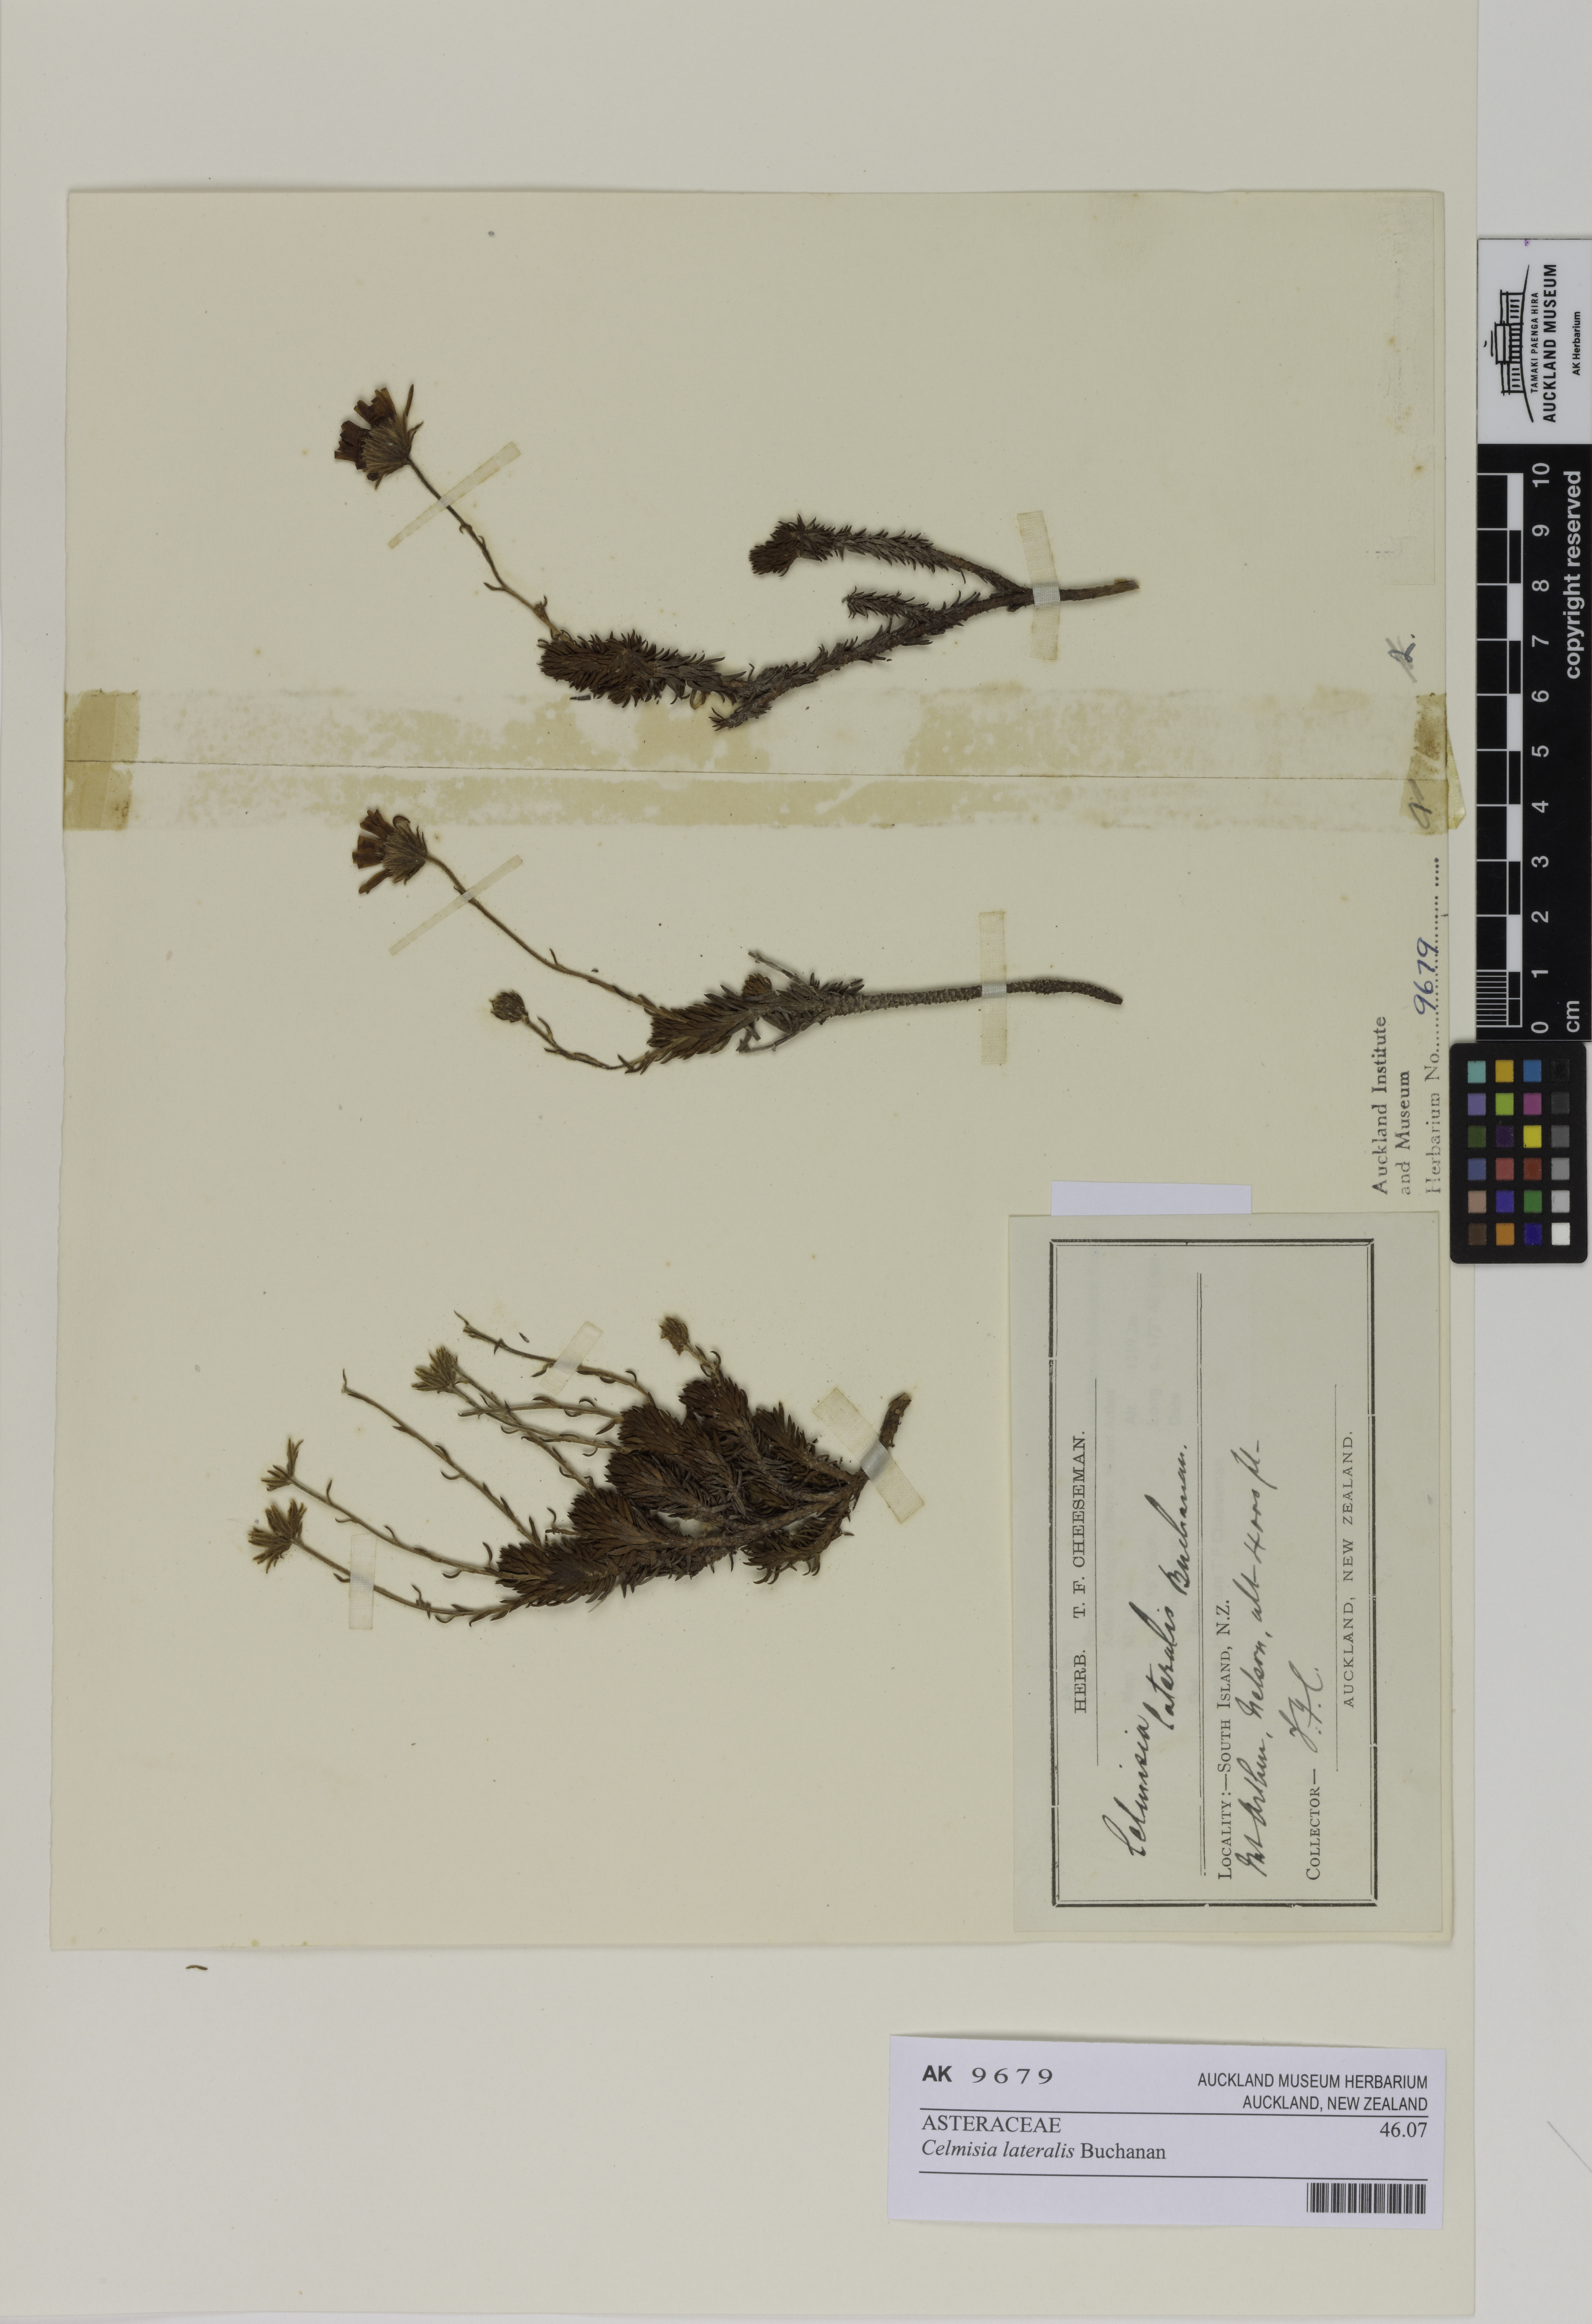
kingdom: Plantae
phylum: Tracheophyta
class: Magnoliopsida
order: Asterales
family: Asteraceae
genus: Celmisia
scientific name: Celmisia lateralis
